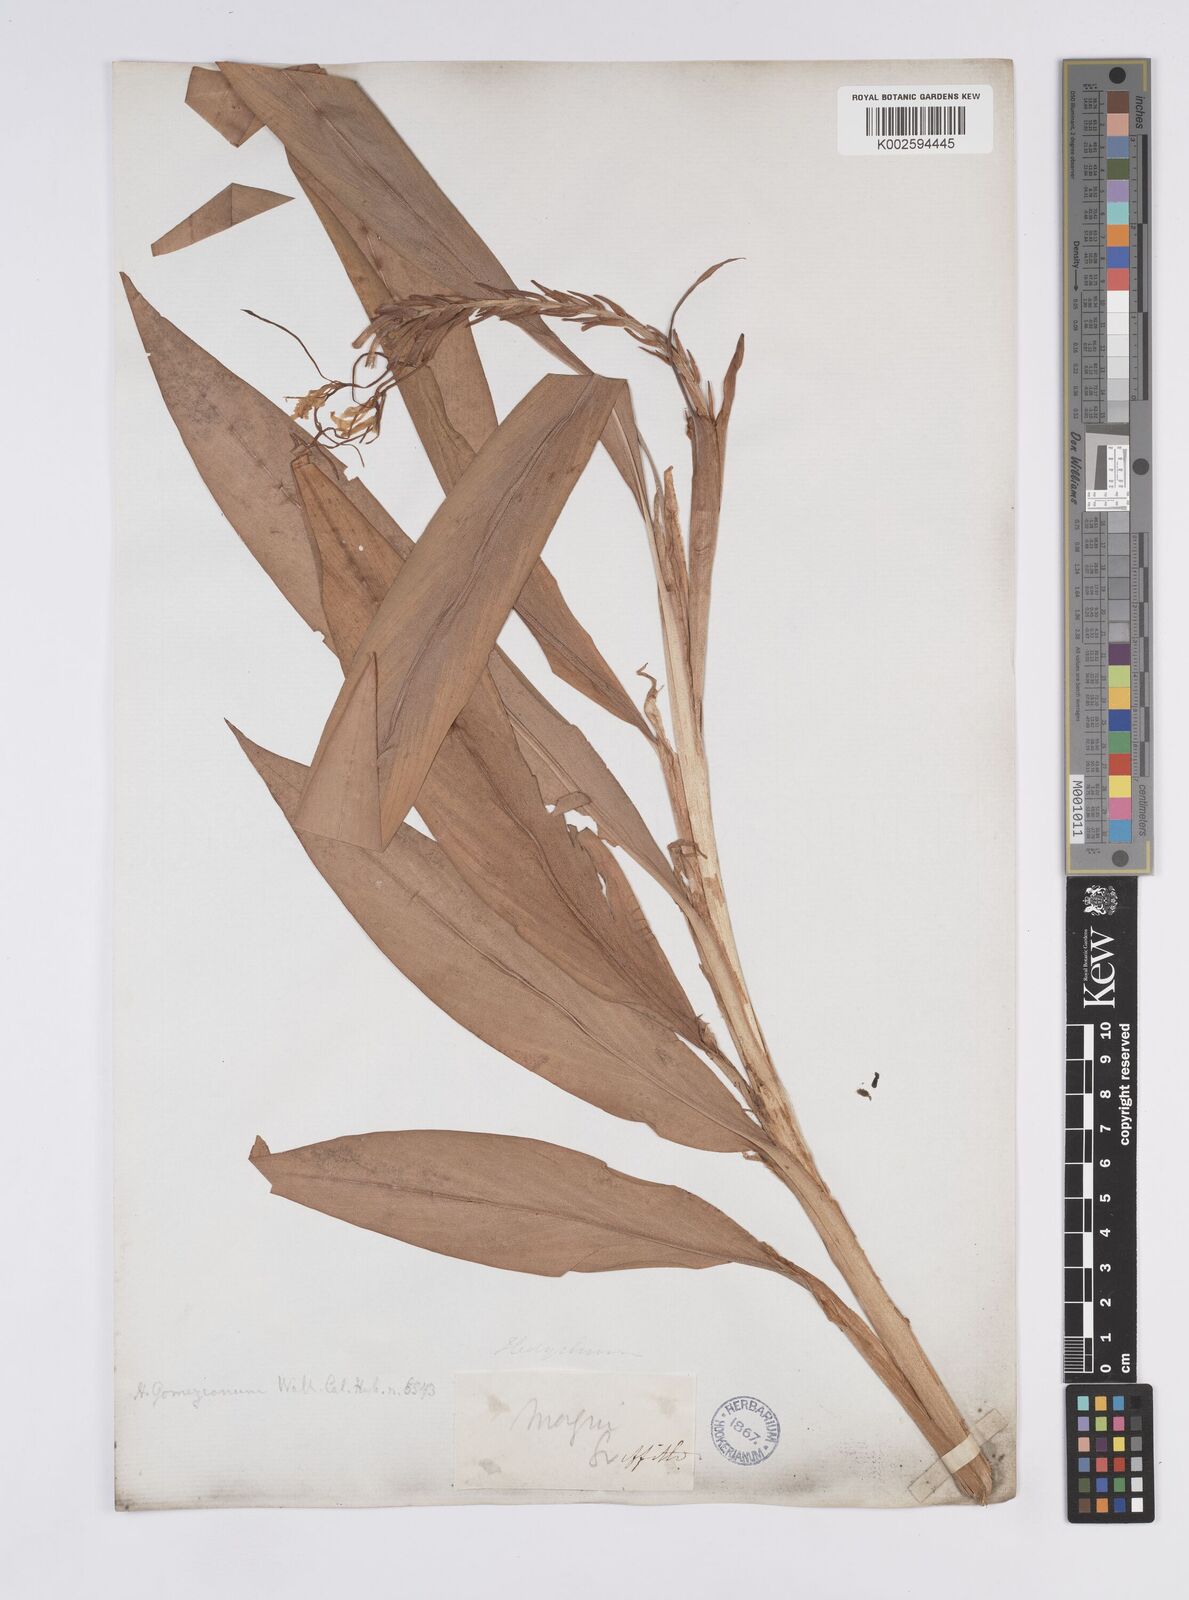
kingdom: Plantae
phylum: Tracheophyta
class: Liliopsida
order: Zingiberales
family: Zingiberaceae
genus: Hedychium
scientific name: Hedychium gomezianum
